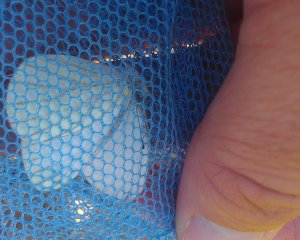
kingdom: Animalia
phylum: Arthropoda
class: Insecta
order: Lepidoptera
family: Pieridae
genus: Pieris
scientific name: Pieris oleracea
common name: Mustard White
